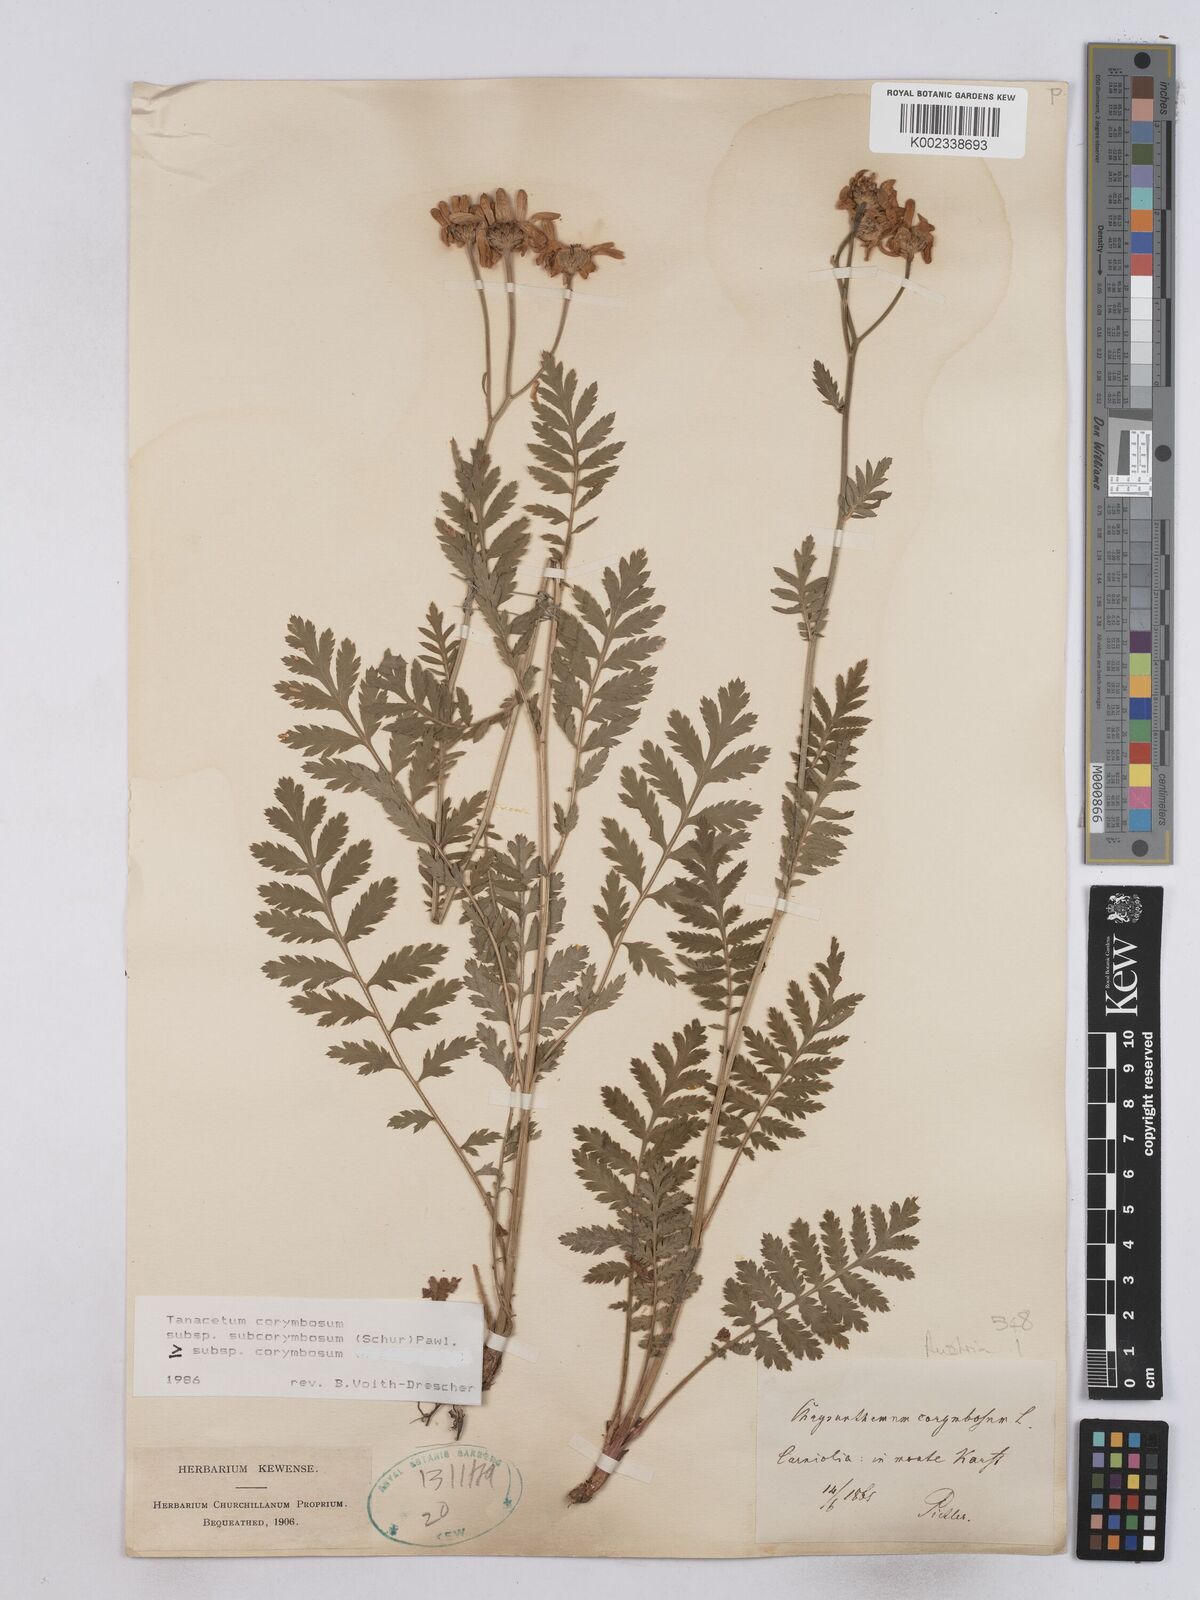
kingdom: Plantae
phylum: Tracheophyta
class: Magnoliopsida
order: Asterales
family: Asteraceae
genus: Tanacetum
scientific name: Tanacetum corymbosum
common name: Scentless feverfew
